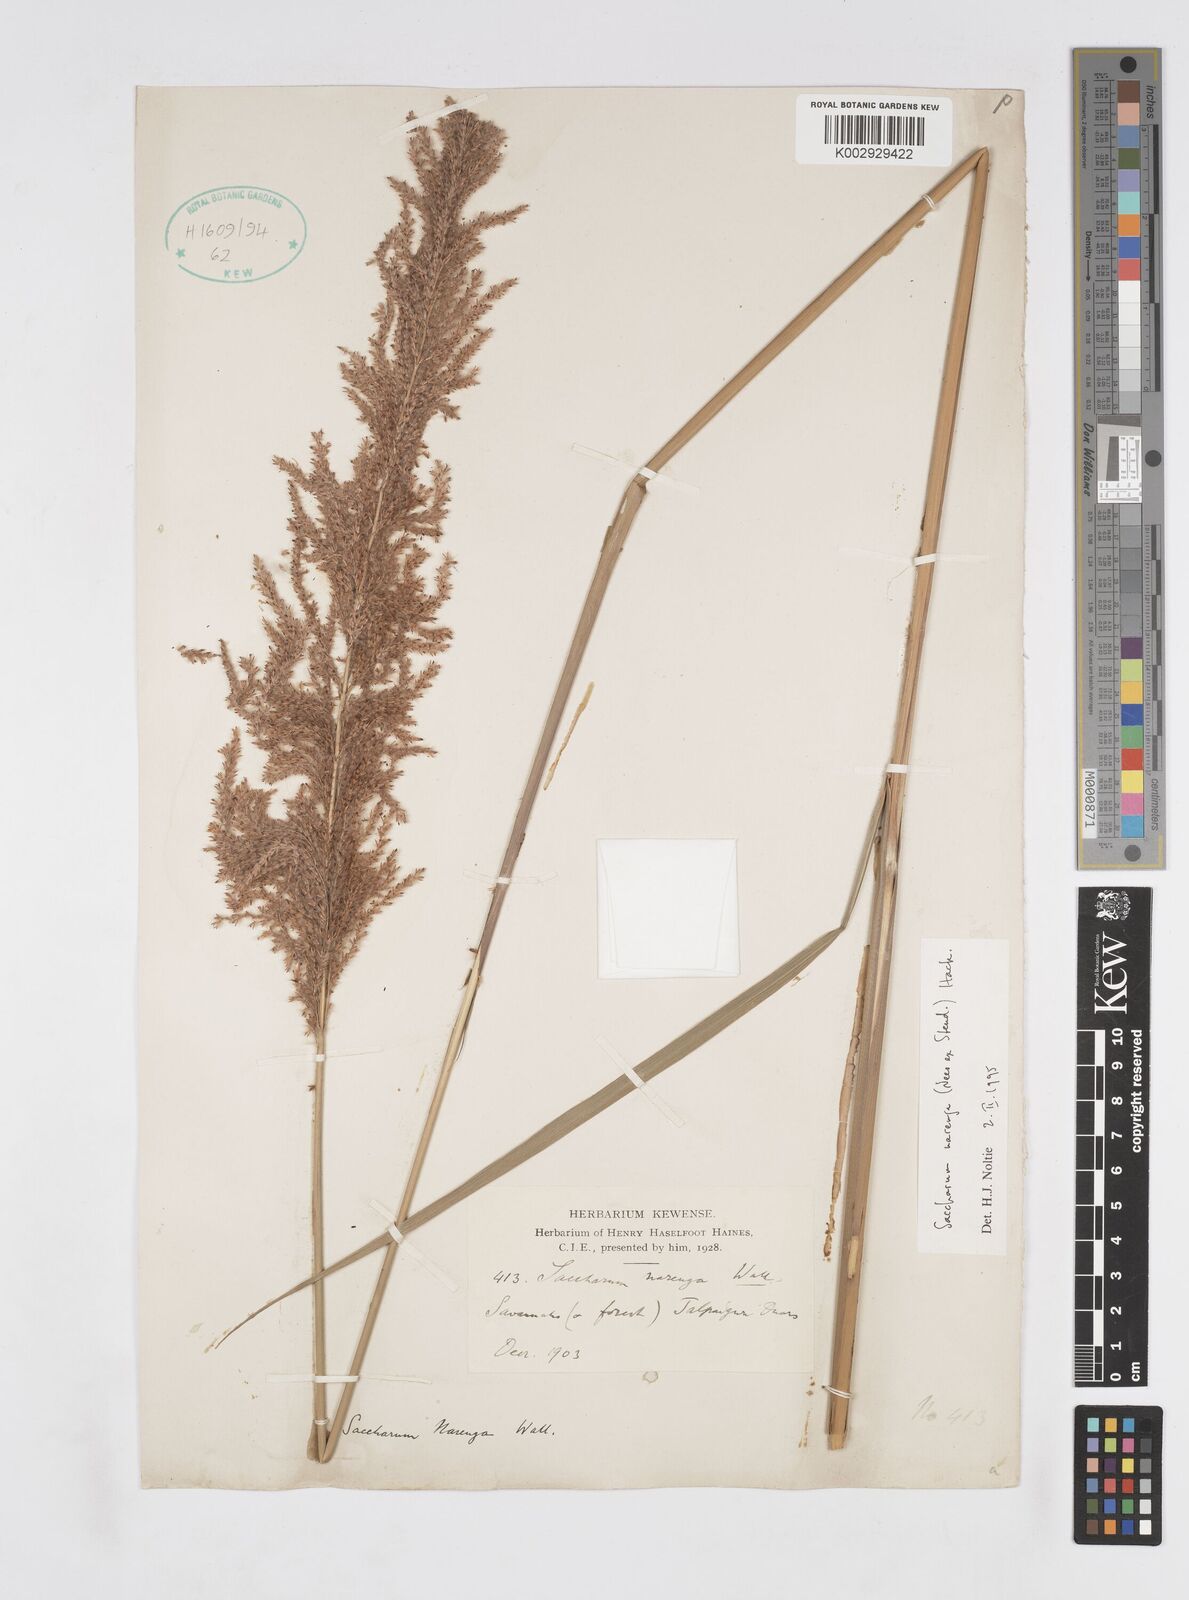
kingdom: Plantae
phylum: Tracheophyta
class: Liliopsida
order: Poales
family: Poaceae
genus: Narenga
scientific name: Narenga porphyrocoma
